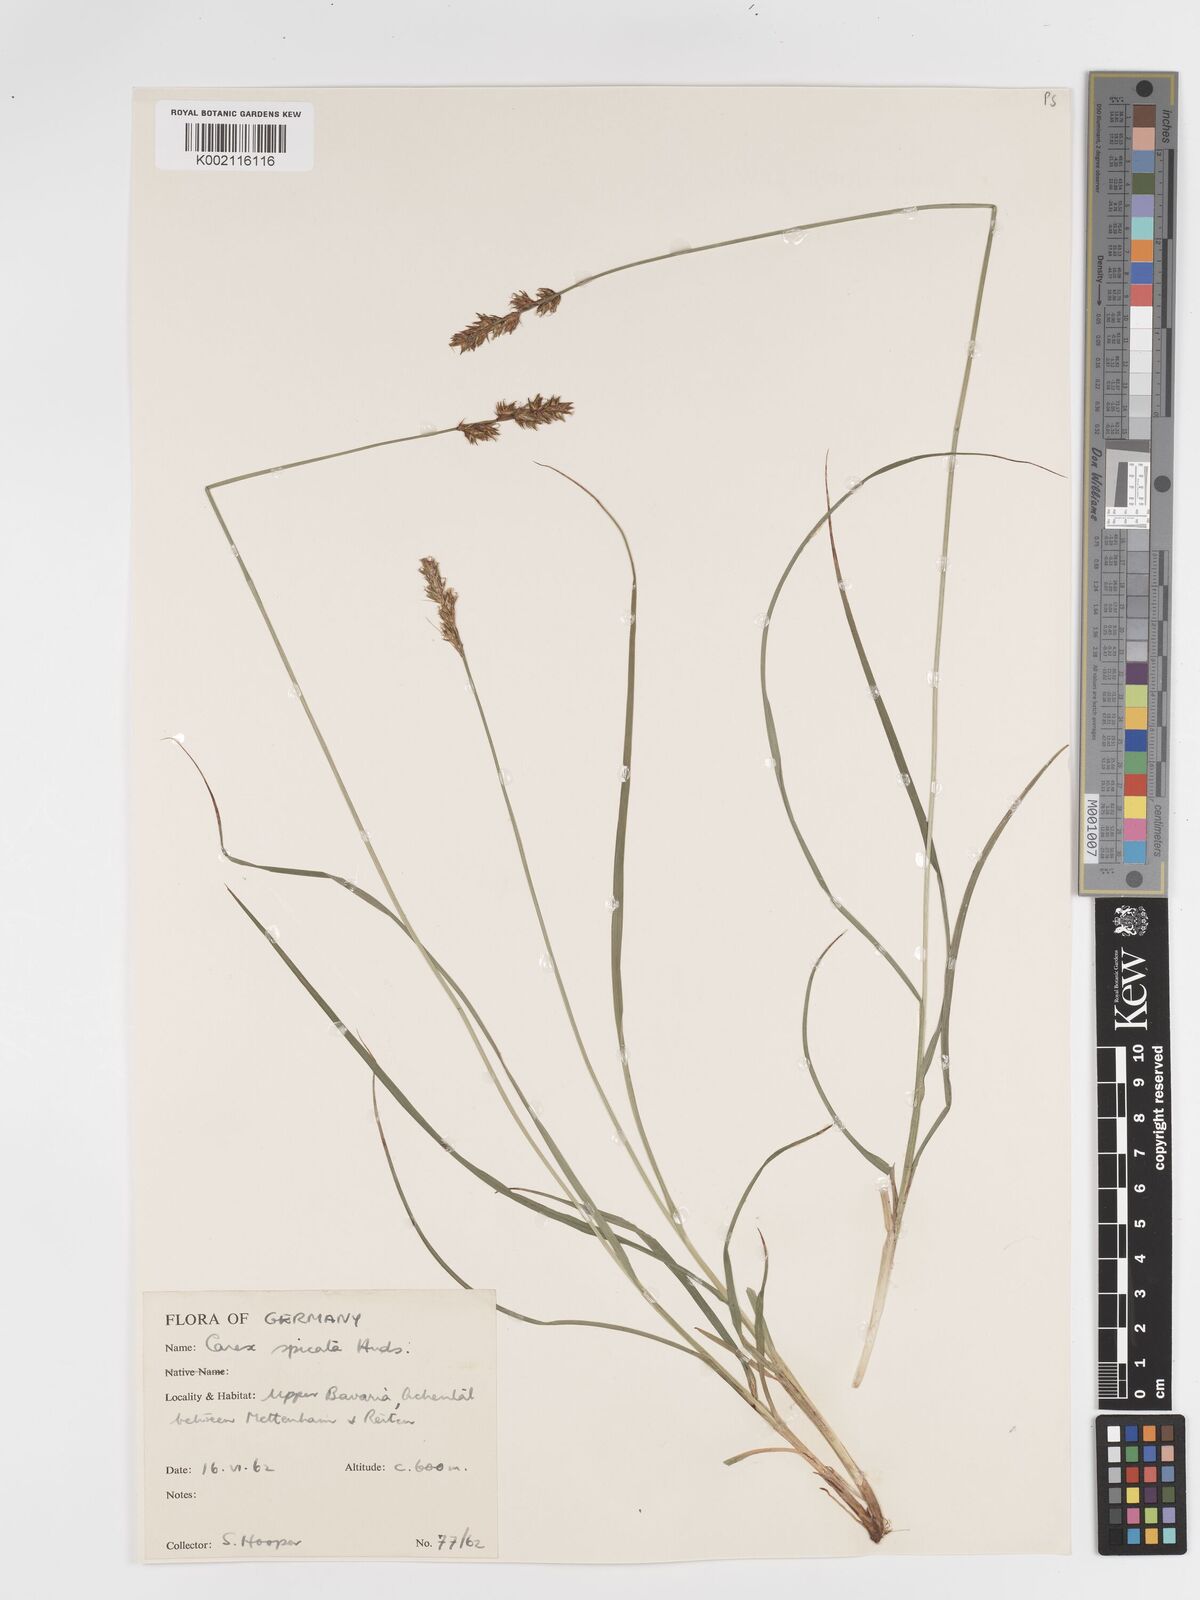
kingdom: Plantae
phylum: Tracheophyta
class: Liliopsida
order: Poales
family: Cyperaceae
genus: Carex
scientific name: Carex spicata
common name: Spiked sedge
